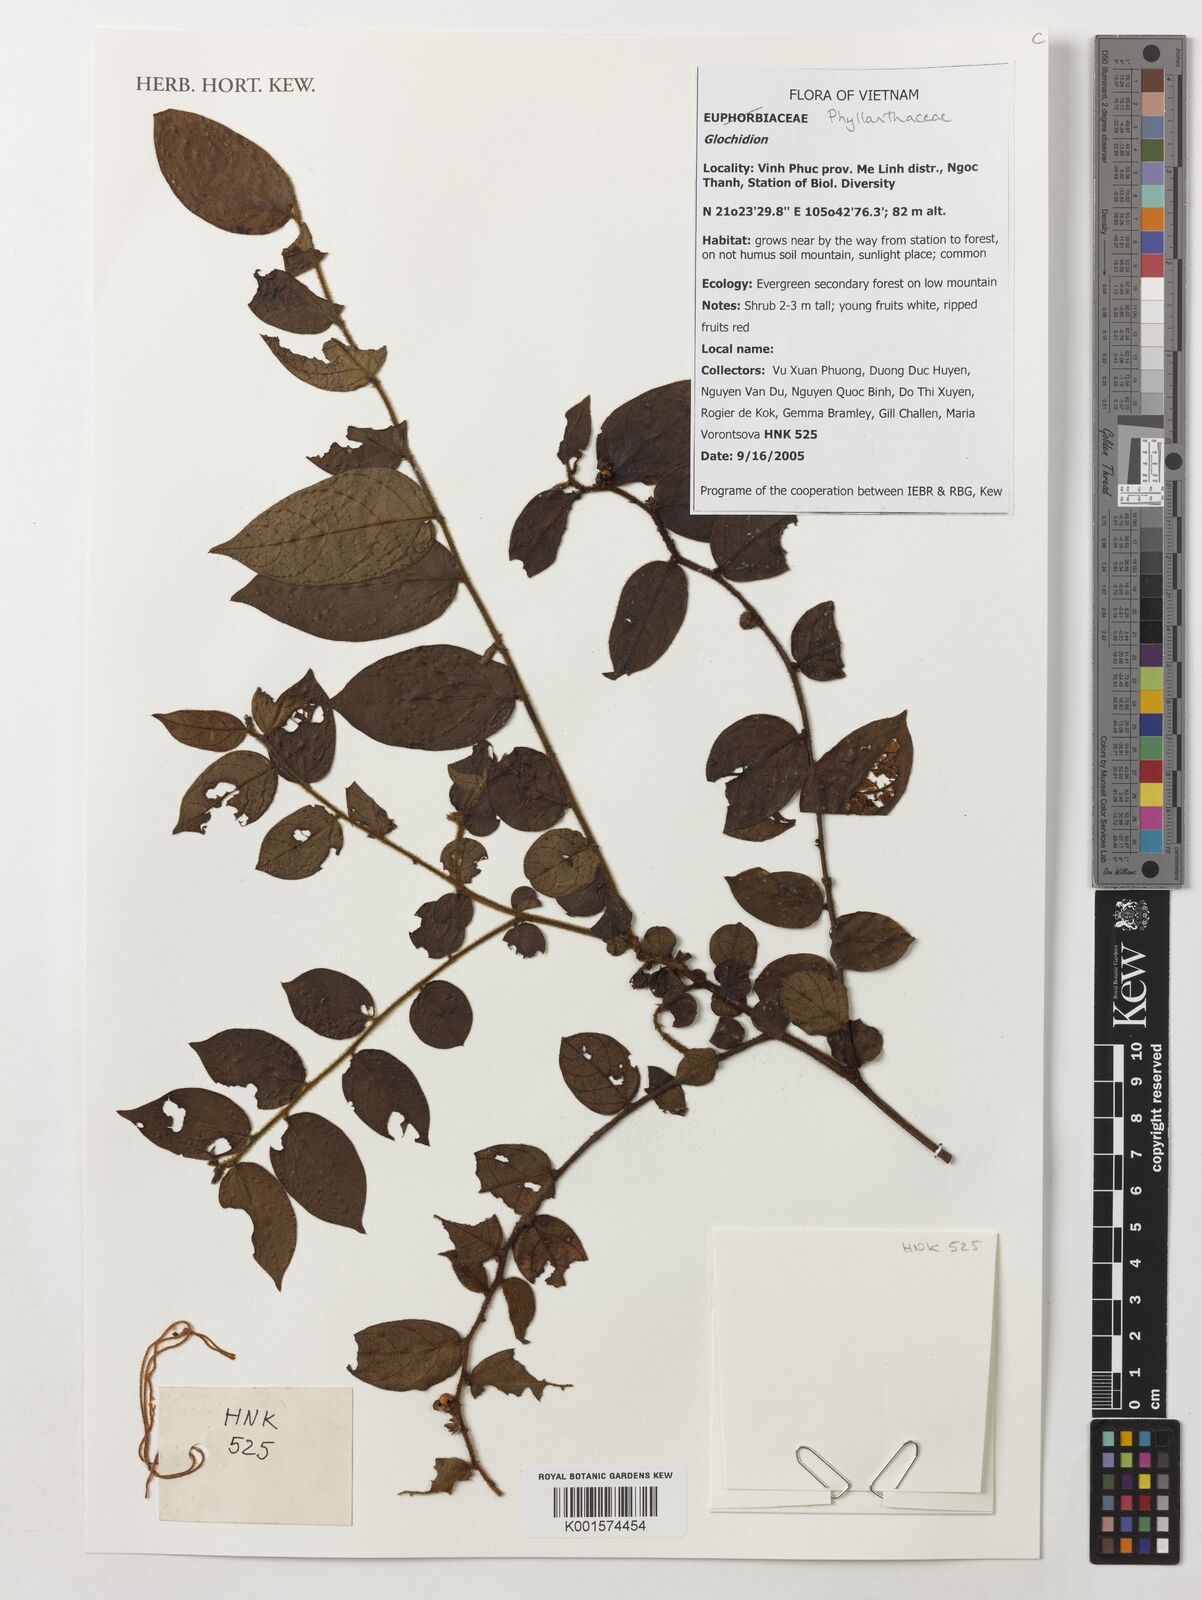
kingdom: Plantae
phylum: Tracheophyta
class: Magnoliopsida
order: Malpighiales
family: Phyllanthaceae
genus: Glochidion
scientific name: Glochidion
